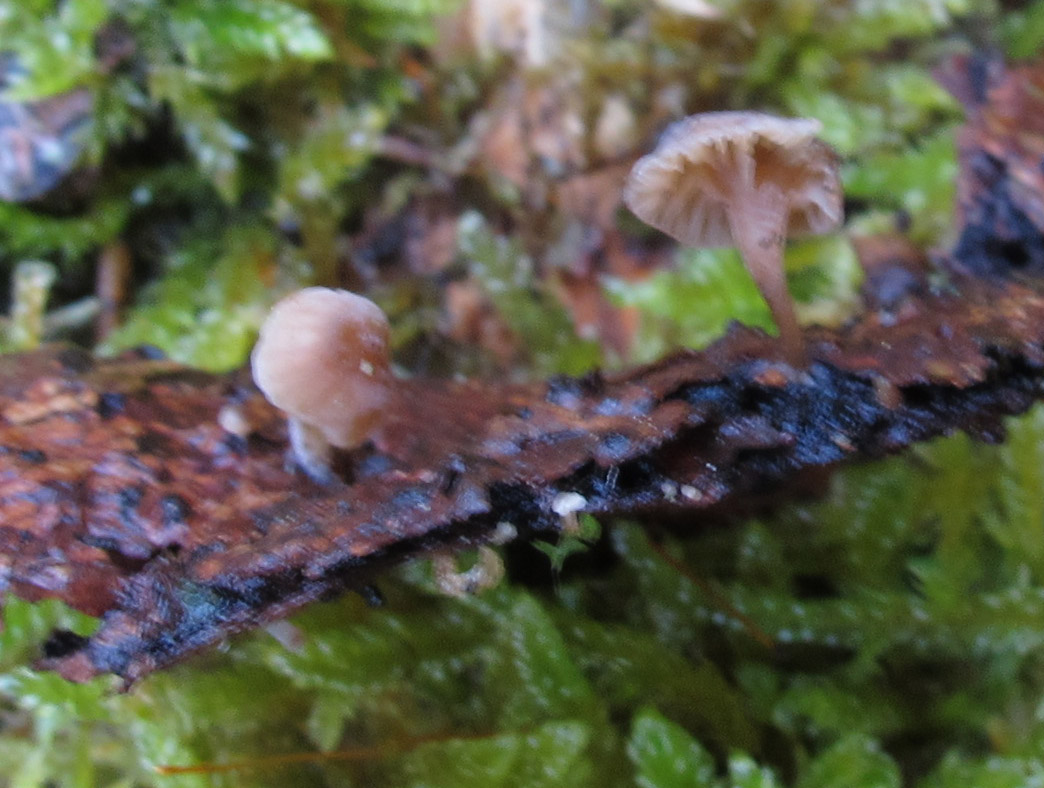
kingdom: Fungi
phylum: Basidiomycota
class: Agaricomycetes
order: Agaricales
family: Porotheleaceae
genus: Phloeomana
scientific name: Phloeomana clavata
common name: brunbladet huesvamp
